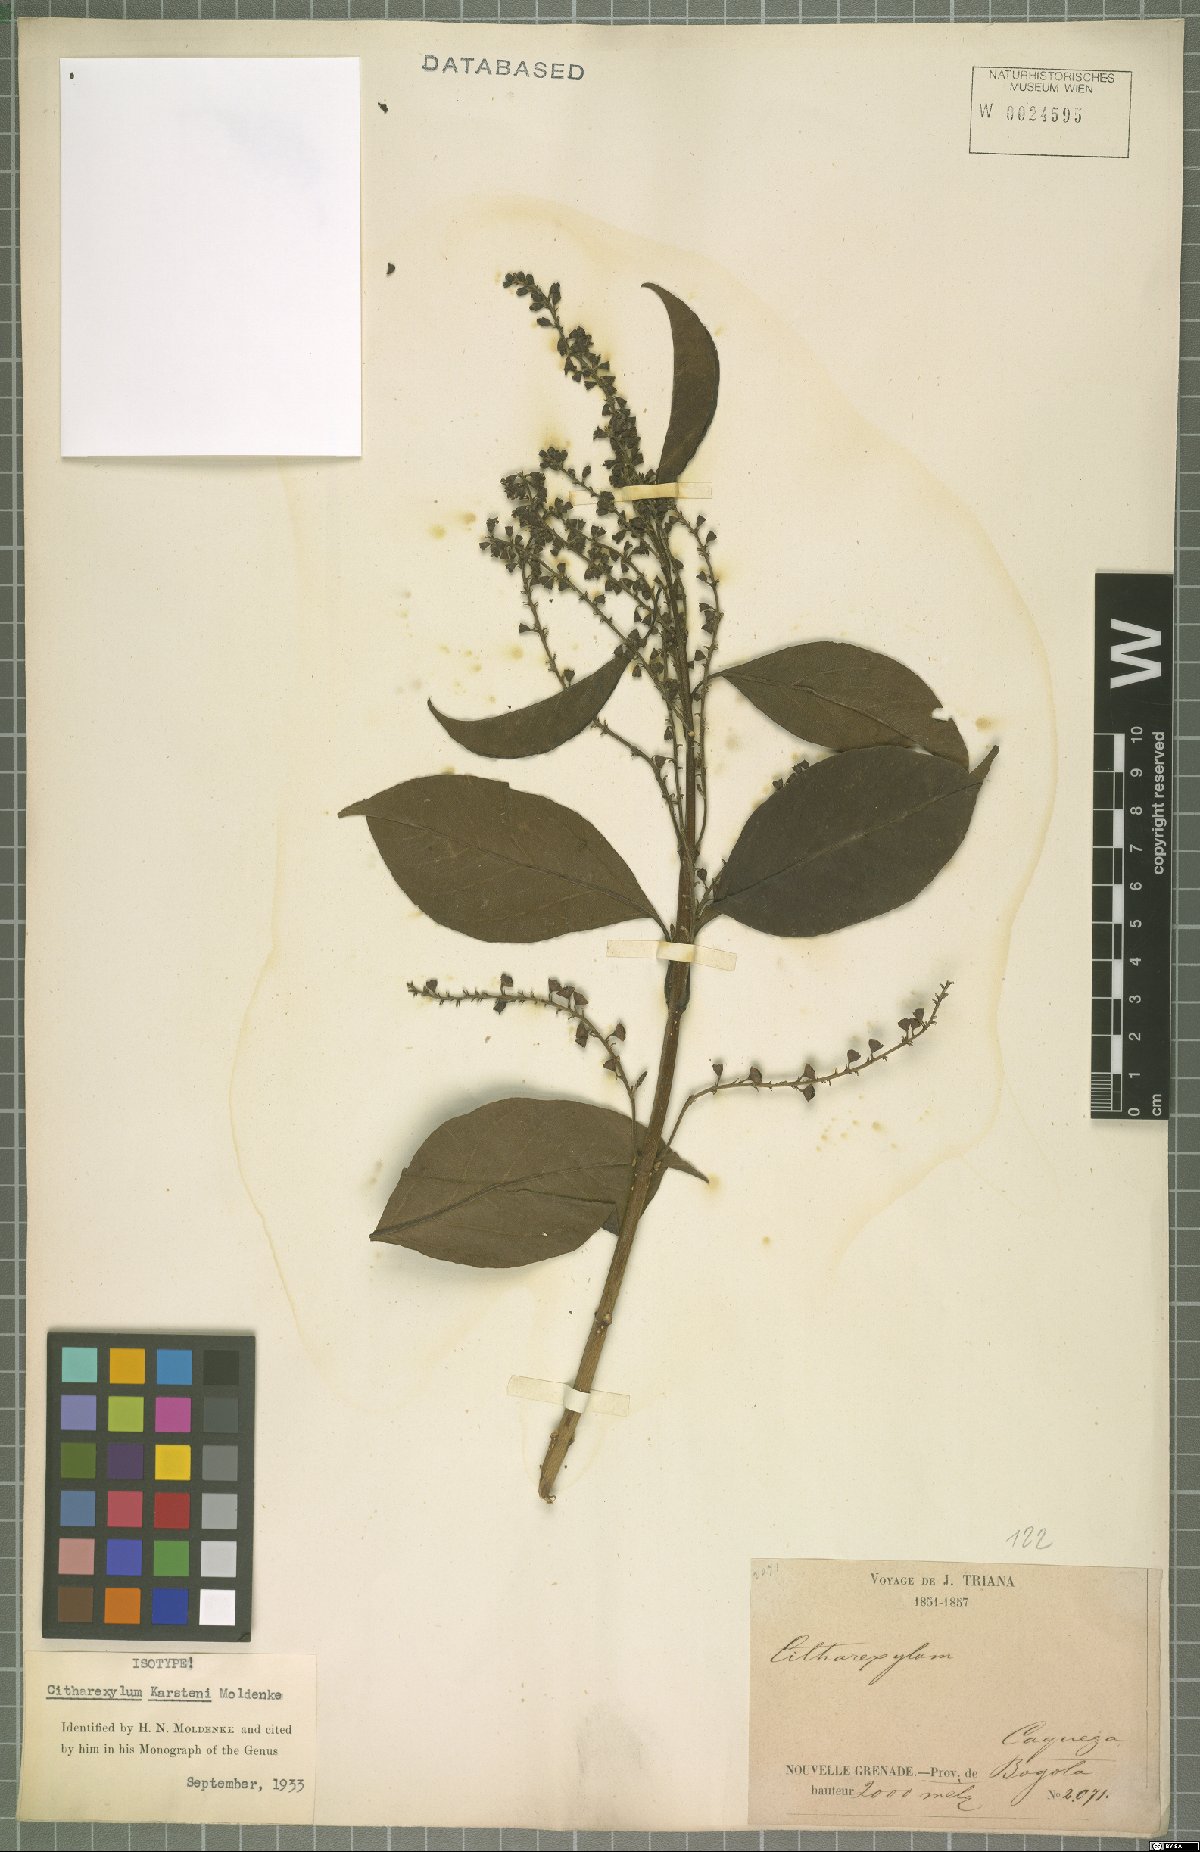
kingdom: Plantae
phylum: Tracheophyta
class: Magnoliopsida
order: Lamiales
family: Verbenaceae
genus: Citharexylum
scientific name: Citharexylum karstenii
